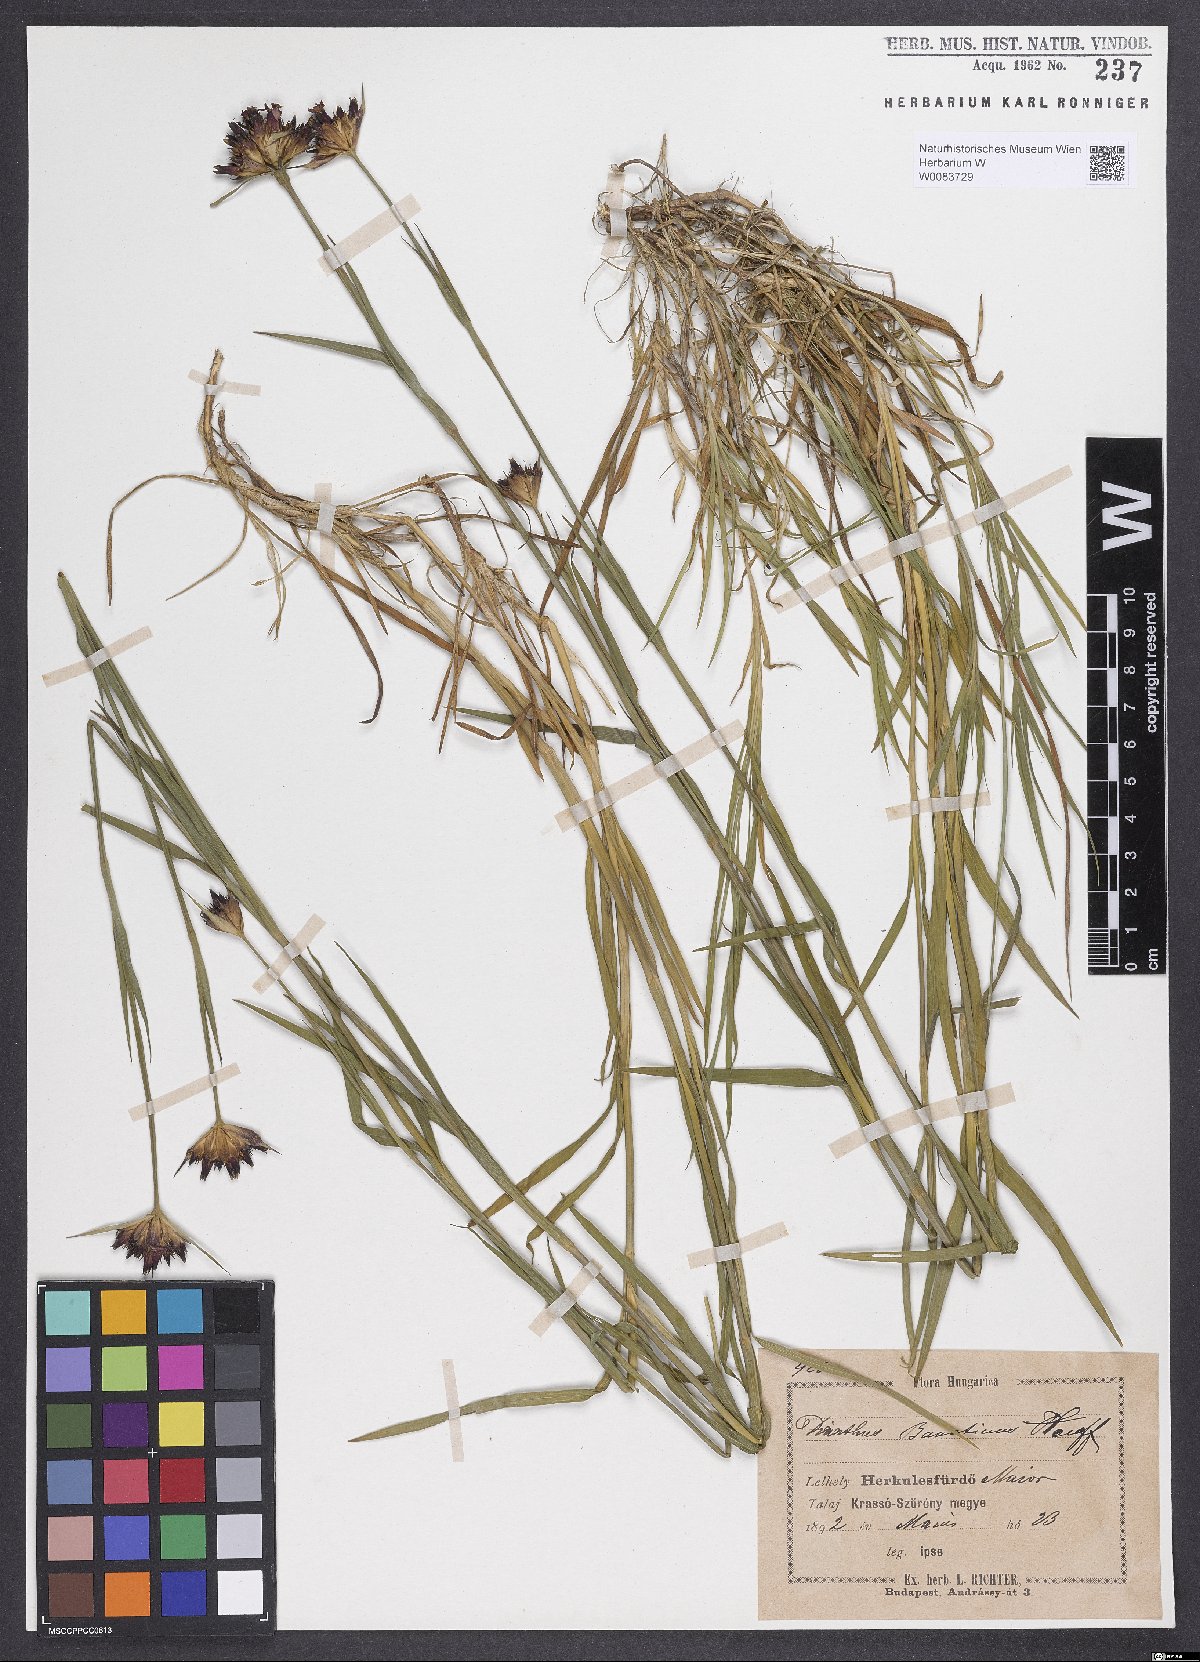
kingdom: Plantae
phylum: Tracheophyta
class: Magnoliopsida
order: Caryophyllales
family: Caryophyllaceae
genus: Dianthus
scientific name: Dianthus giganteus
